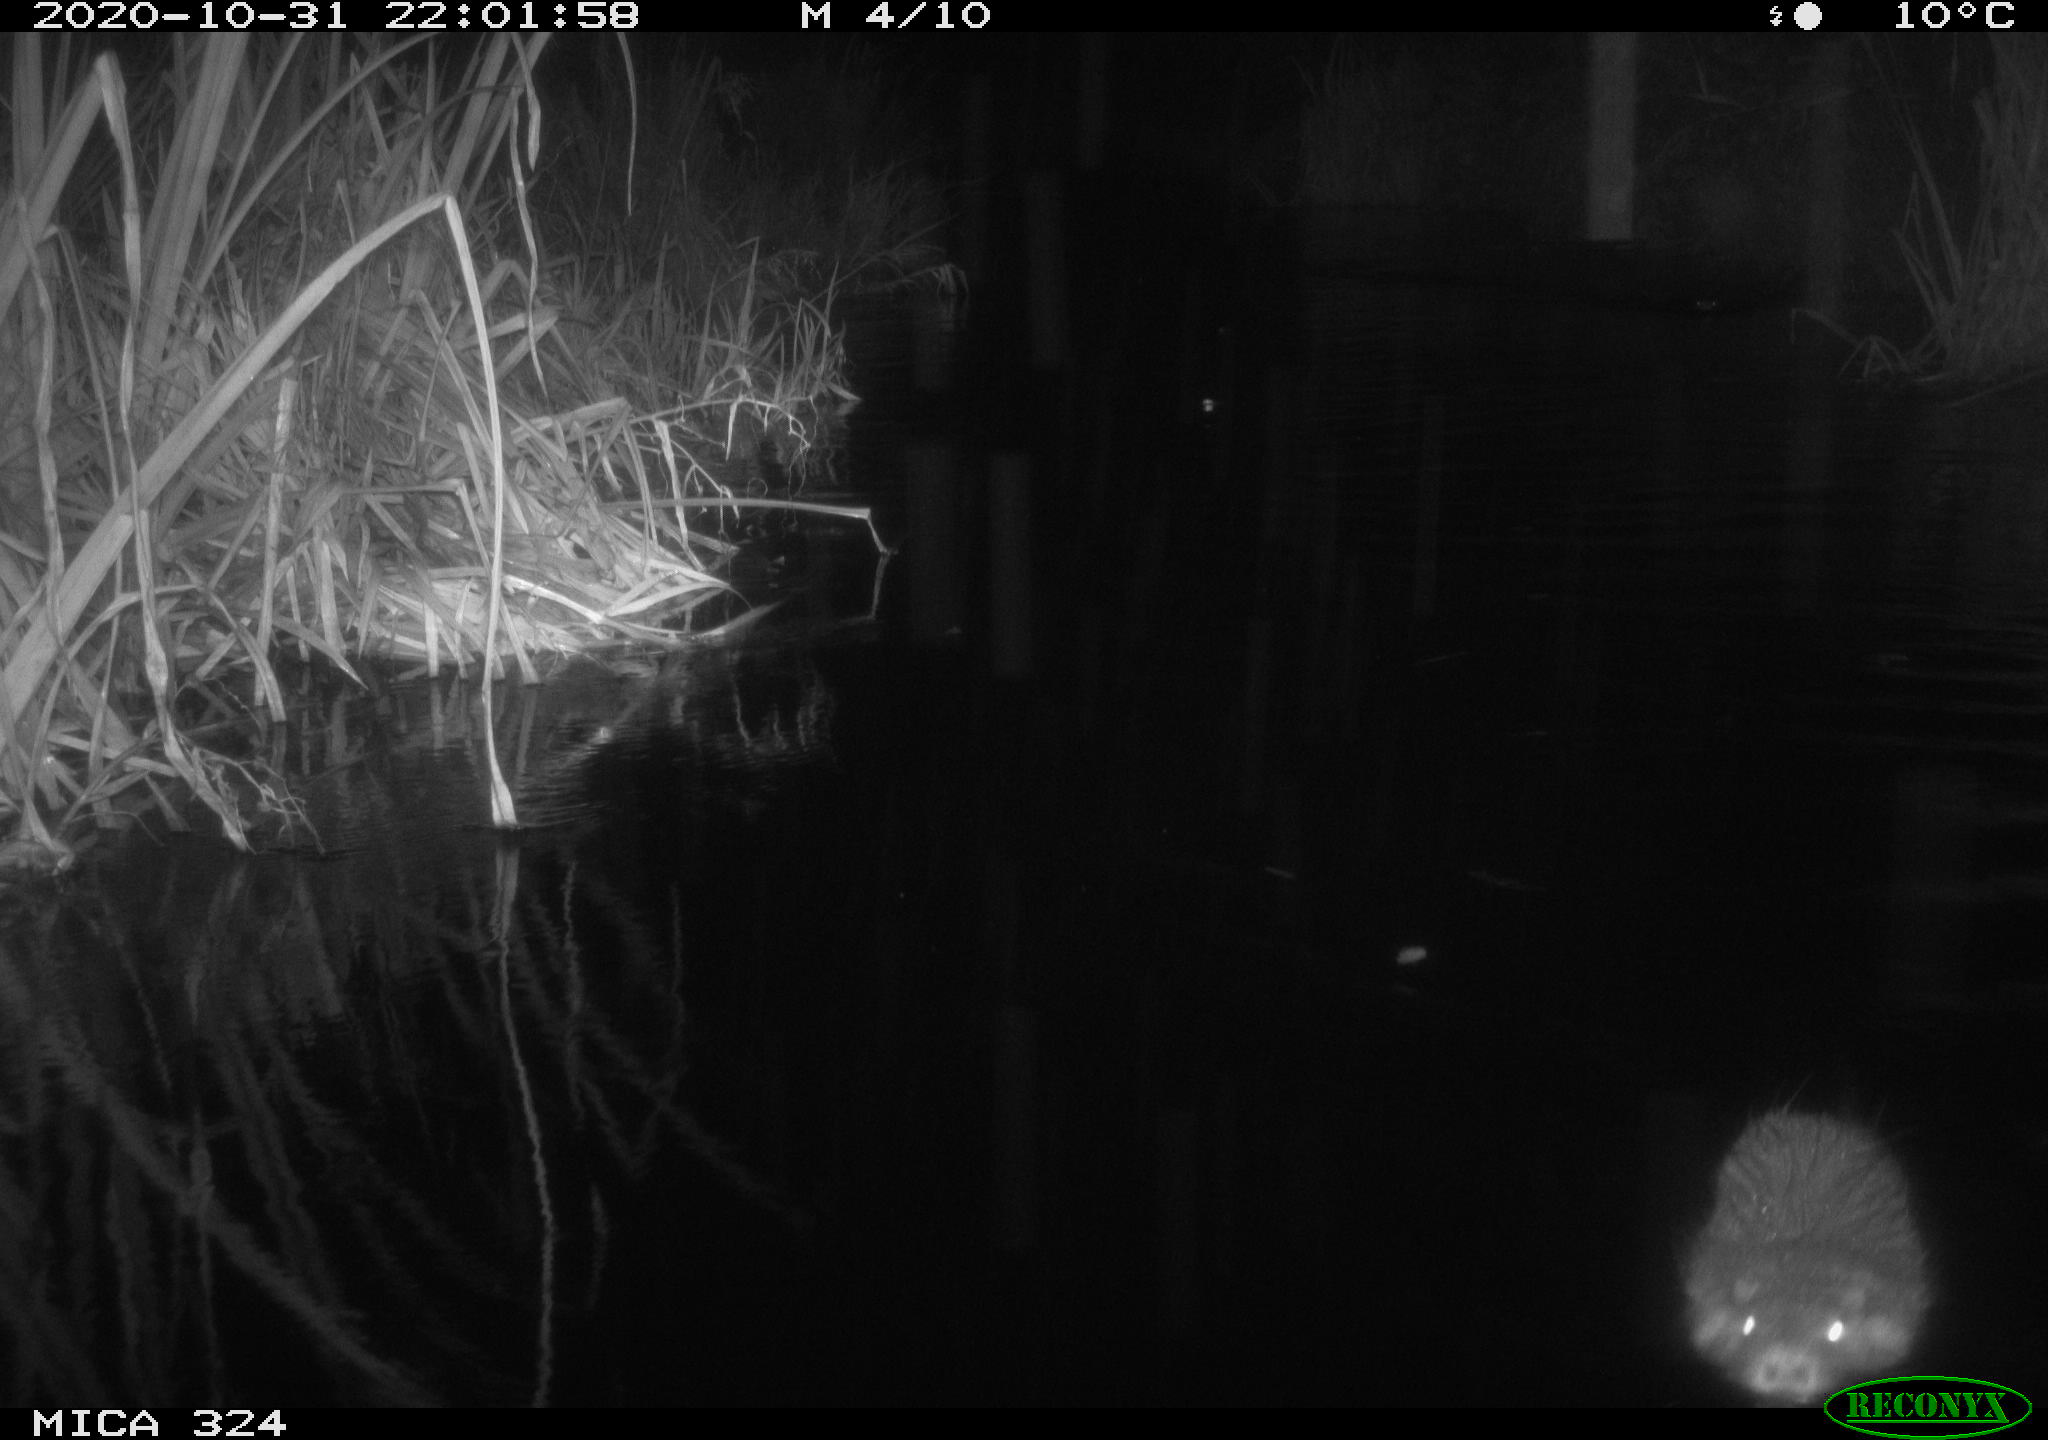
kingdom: Animalia
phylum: Chordata
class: Mammalia
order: Rodentia
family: Myocastoridae
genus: Myocastor
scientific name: Myocastor coypus
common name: Coypu
